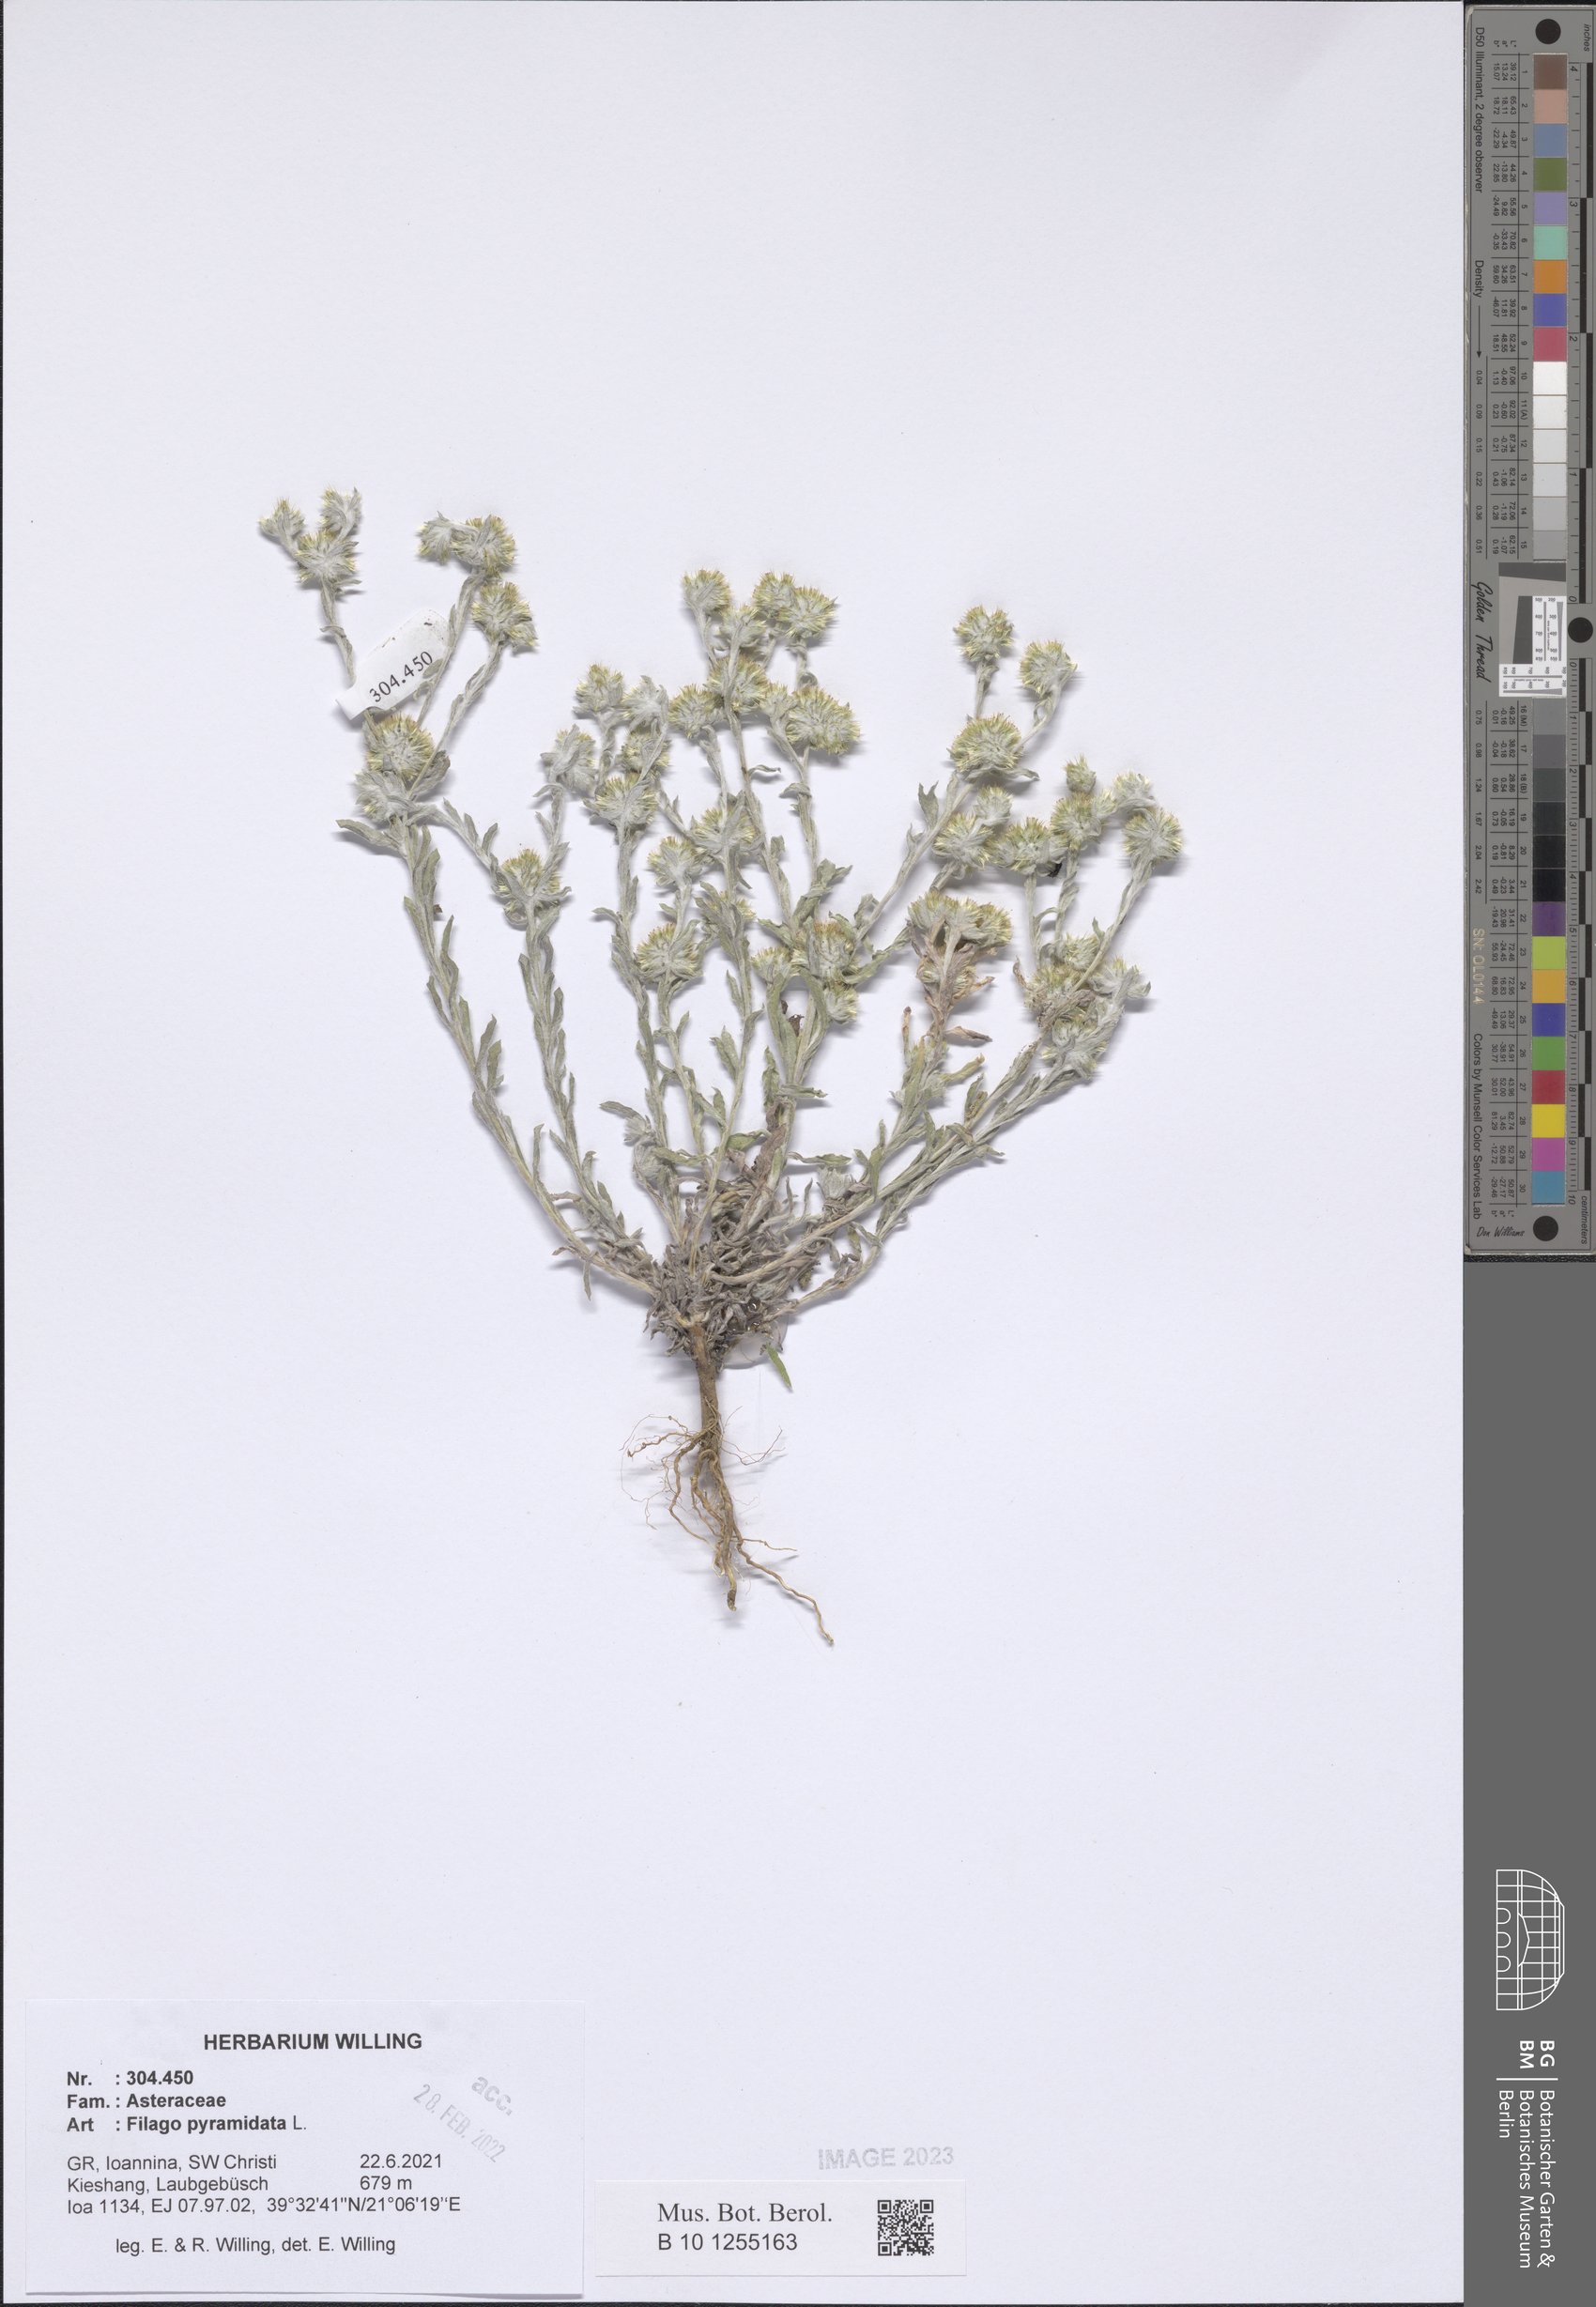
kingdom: Plantae
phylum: Tracheophyta
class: Magnoliopsida
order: Asterales
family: Asteraceae
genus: Filago
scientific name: Filago pyramidata
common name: Broad-leaved cudweed
